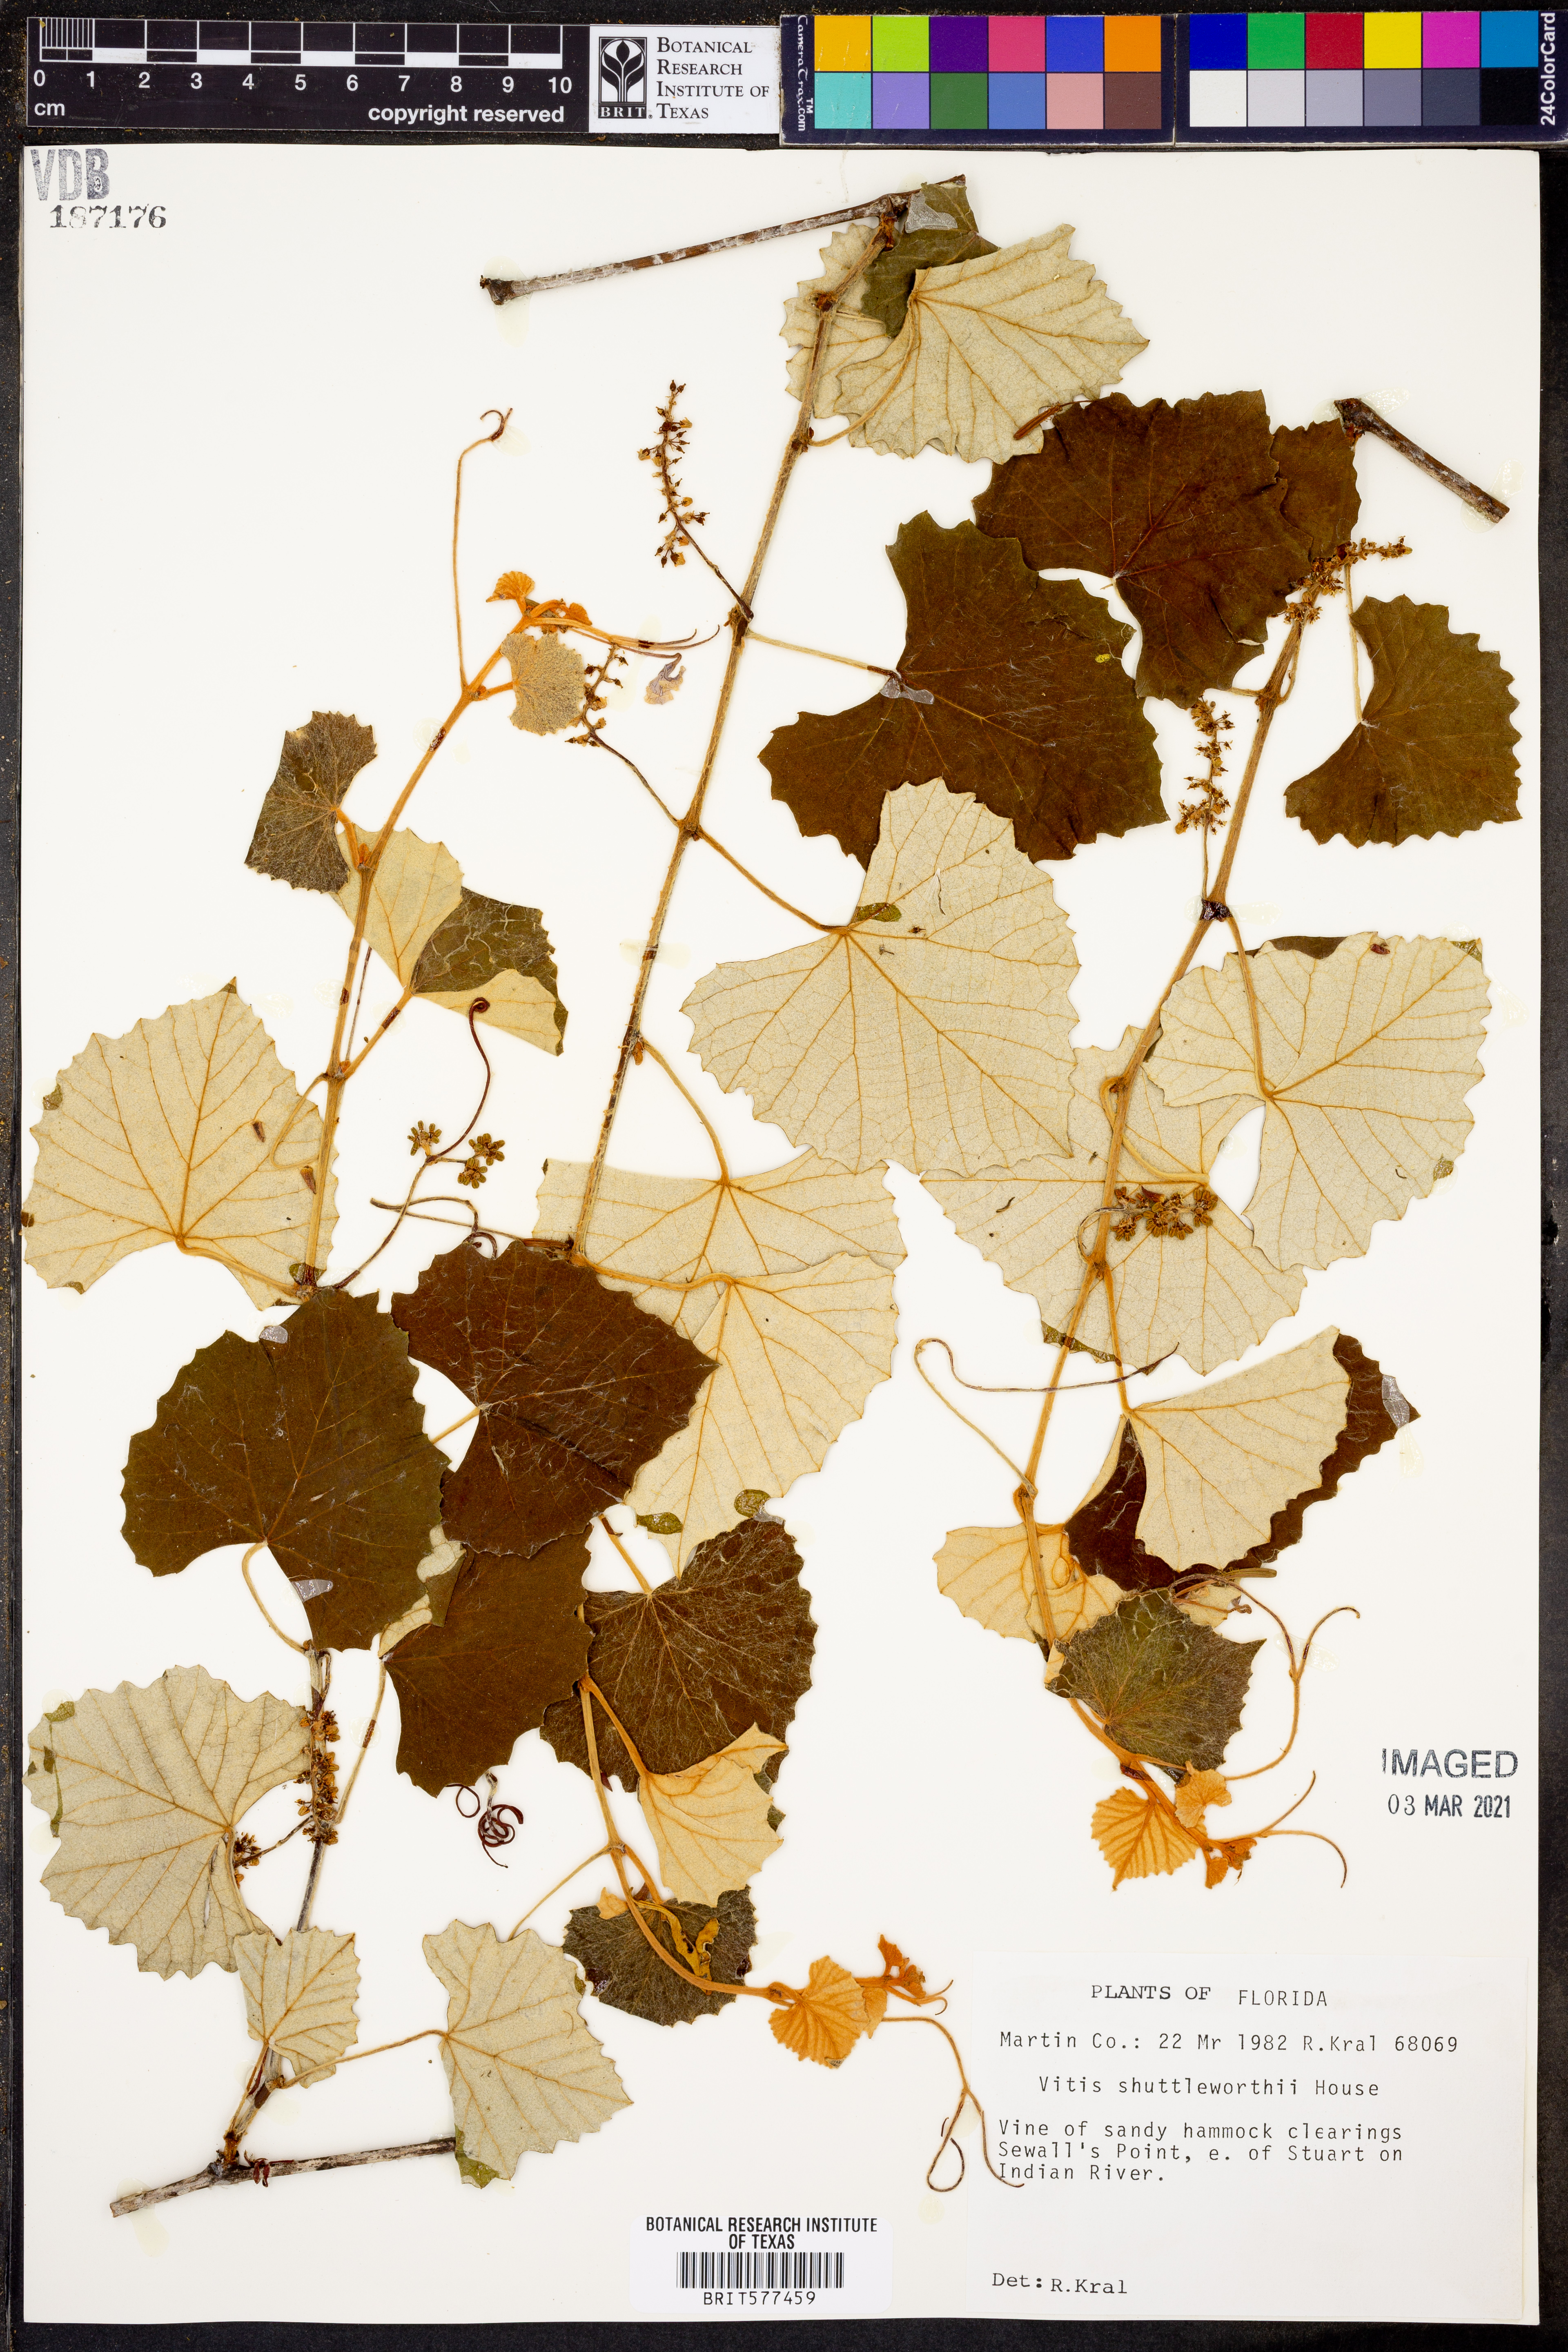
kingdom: Plantae
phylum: Tracheophyta
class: Magnoliopsida
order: Vitales
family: Vitaceae
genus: Vitis
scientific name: Vitis shuttleworthii
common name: Caloosa grape
